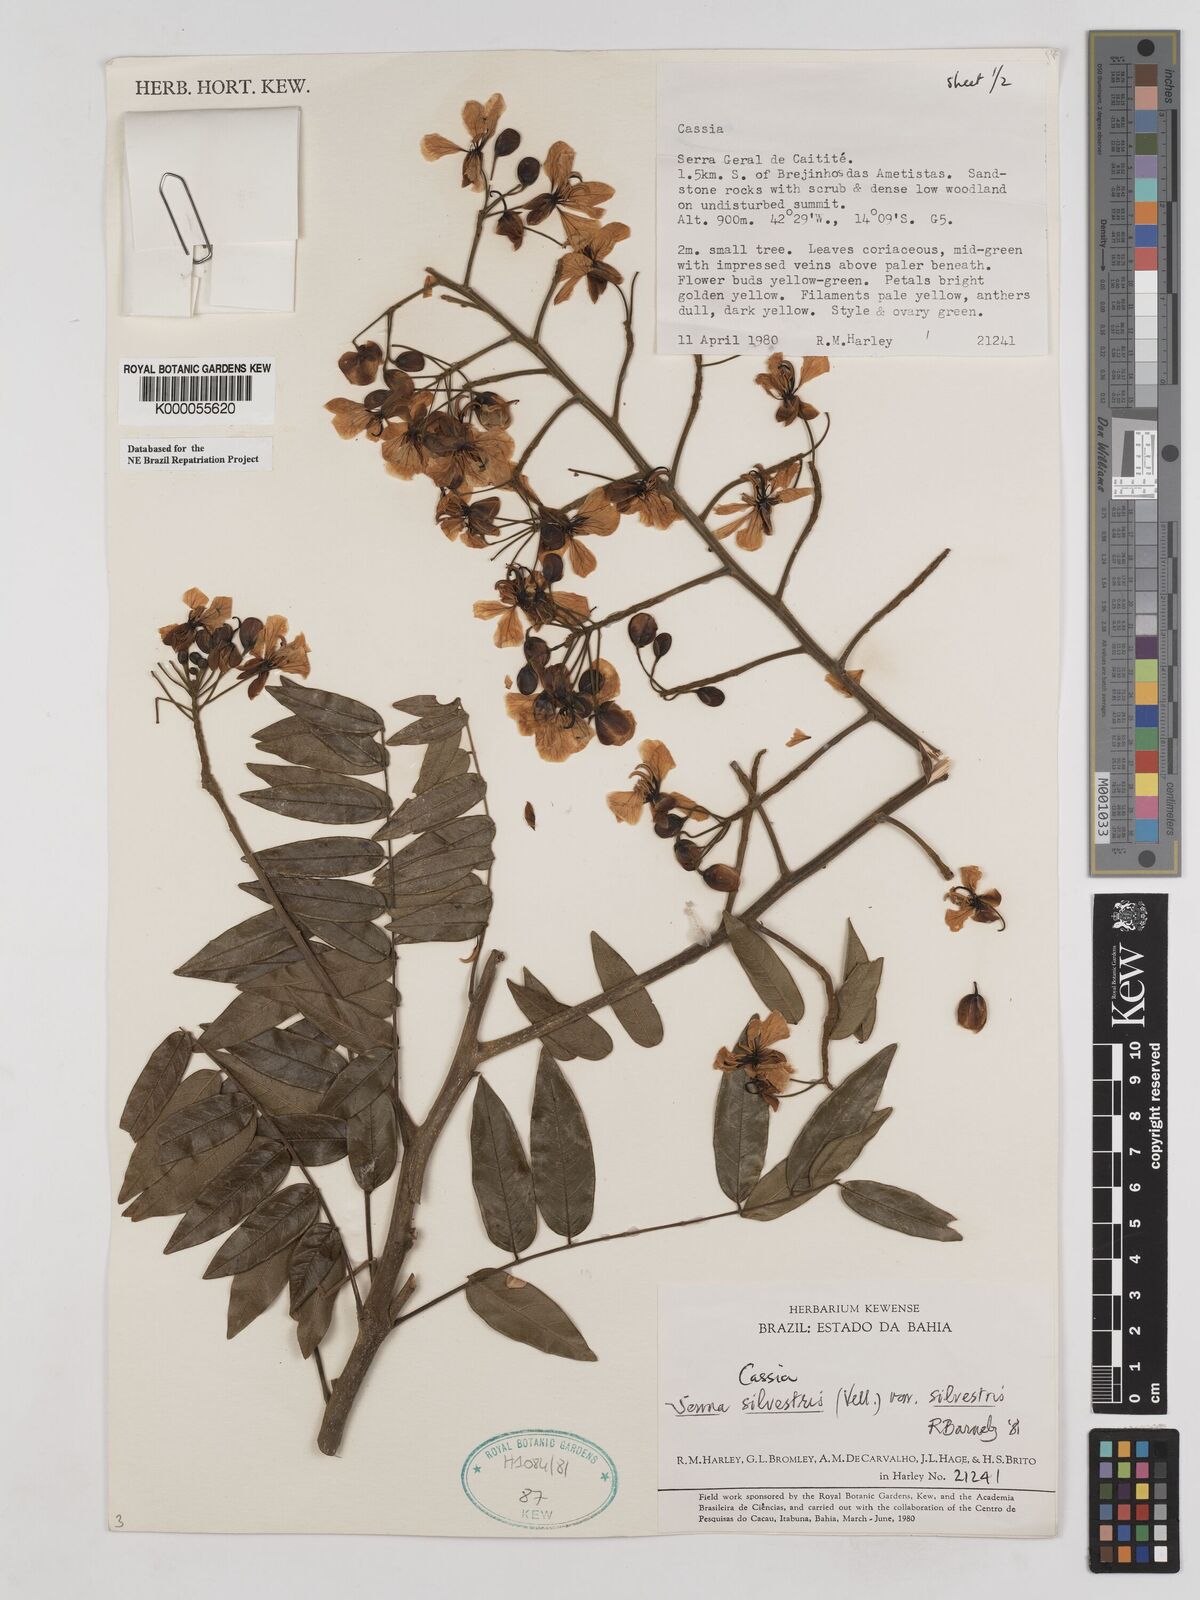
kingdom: Plantae
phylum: Tracheophyta
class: Magnoliopsida
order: Fabales
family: Fabaceae
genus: Senna
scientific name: Senna silvestris
